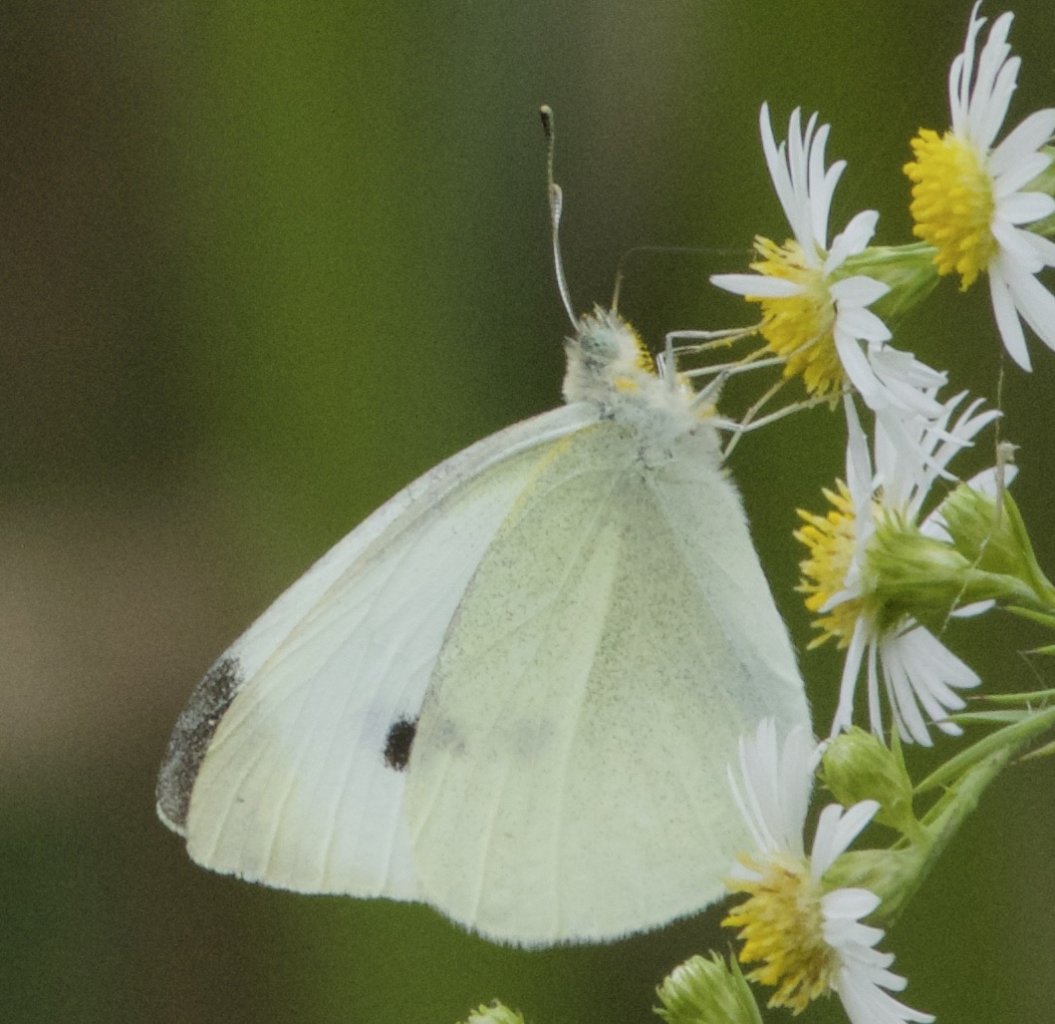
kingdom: Animalia
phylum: Arthropoda
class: Insecta
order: Lepidoptera
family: Pieridae
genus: Pieris
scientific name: Pieris rapae
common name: Cabbage White
